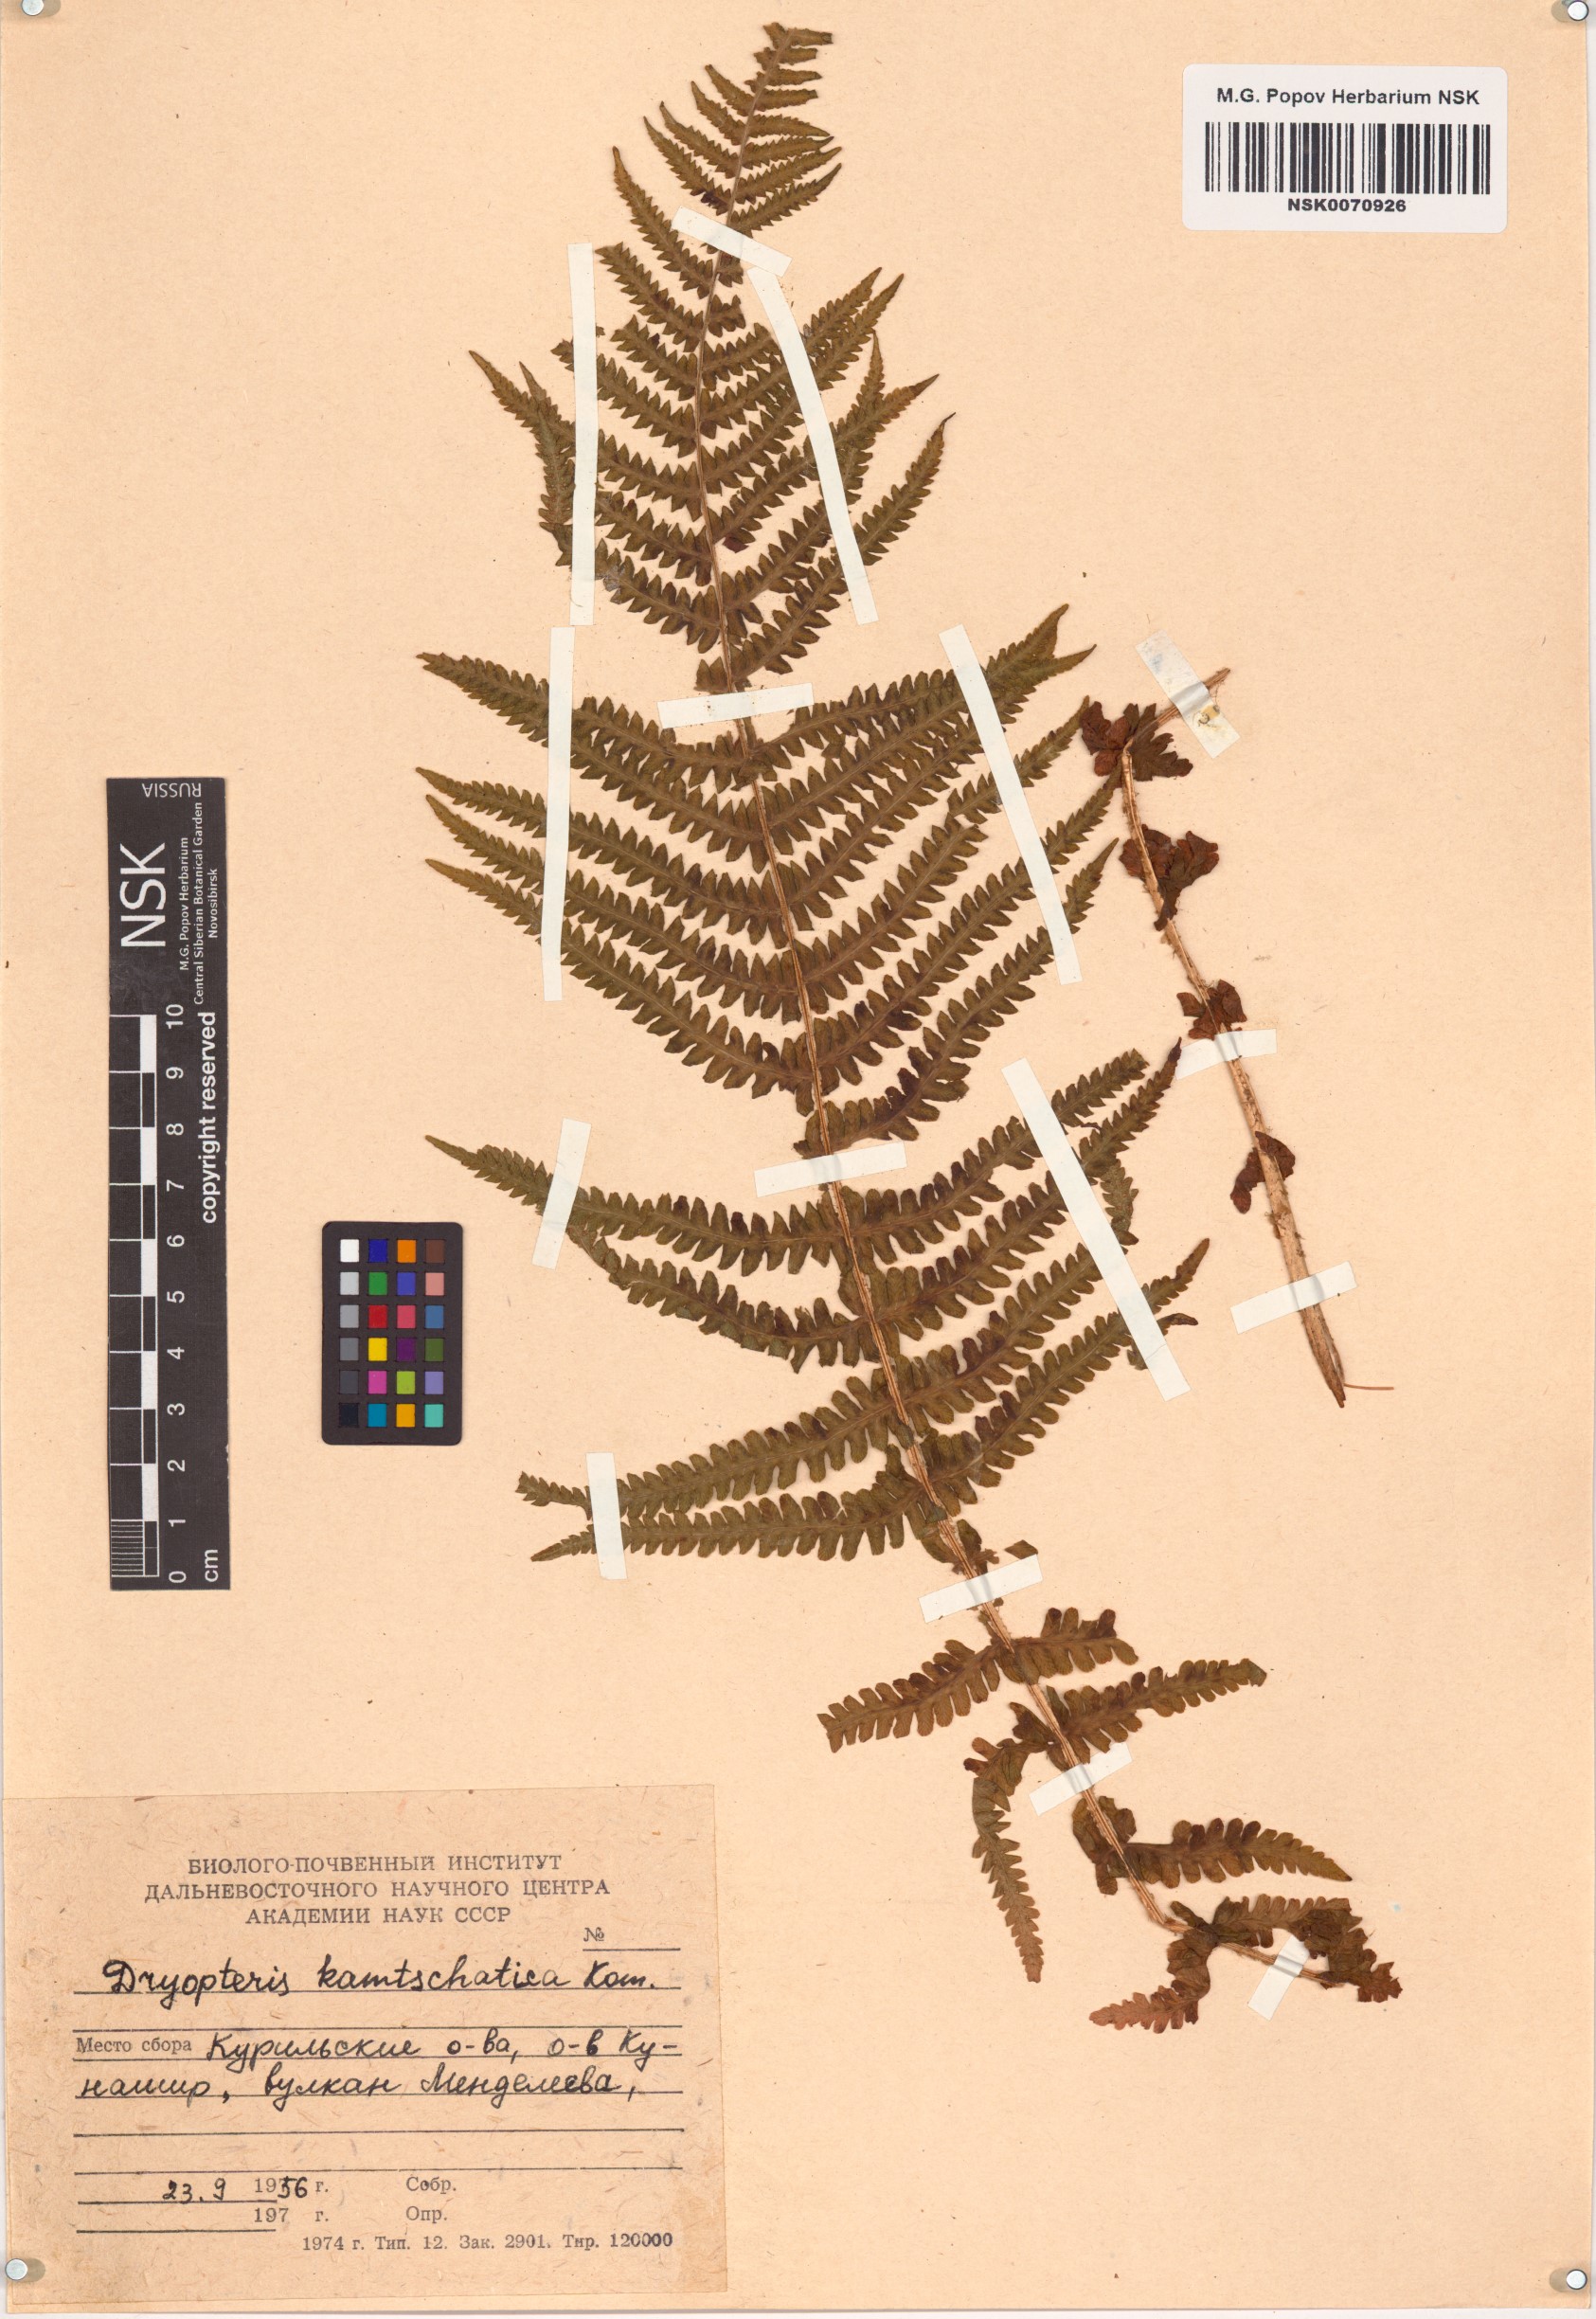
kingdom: Plantae
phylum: Tracheophyta
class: Polypodiopsida
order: Polypodiales
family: Dryopteridaceae
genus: Dryopteris
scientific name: Dryopteris kamtshatica
